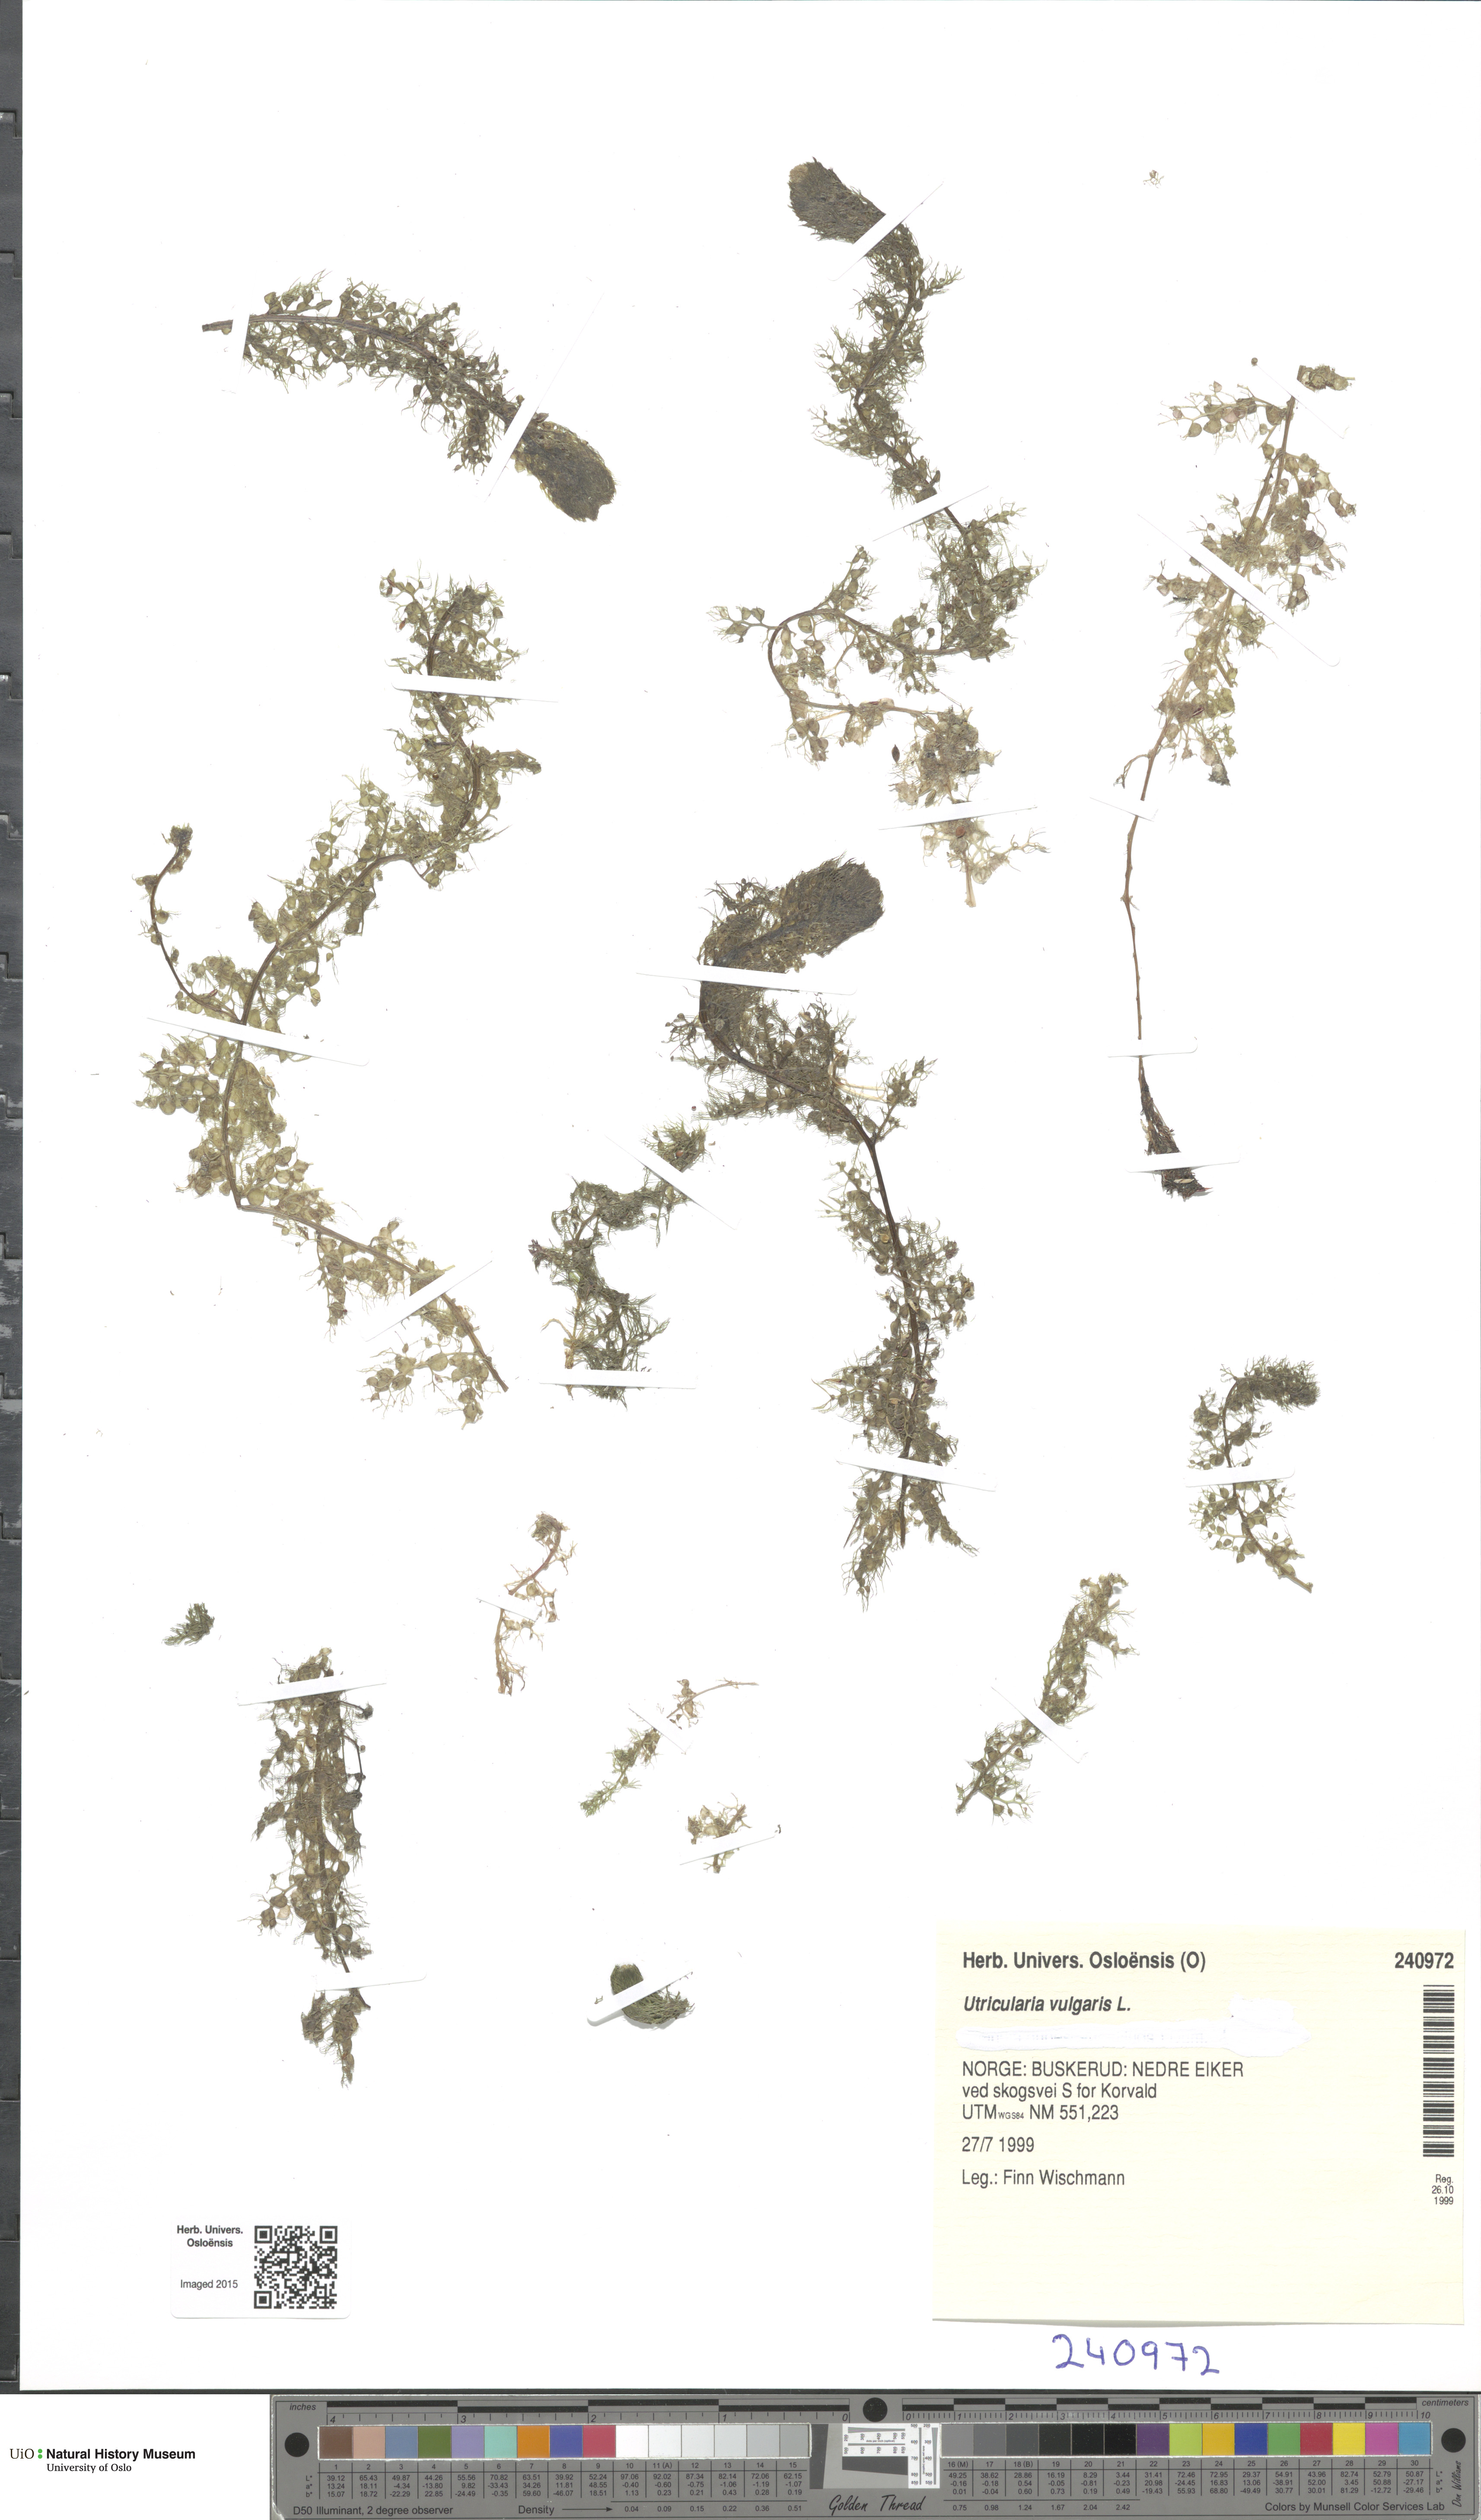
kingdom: Plantae
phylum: Tracheophyta
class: Magnoliopsida
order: Lamiales
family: Lentibulariaceae
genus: Utricularia
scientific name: Utricularia vulgaris
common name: Greater bladderwort
